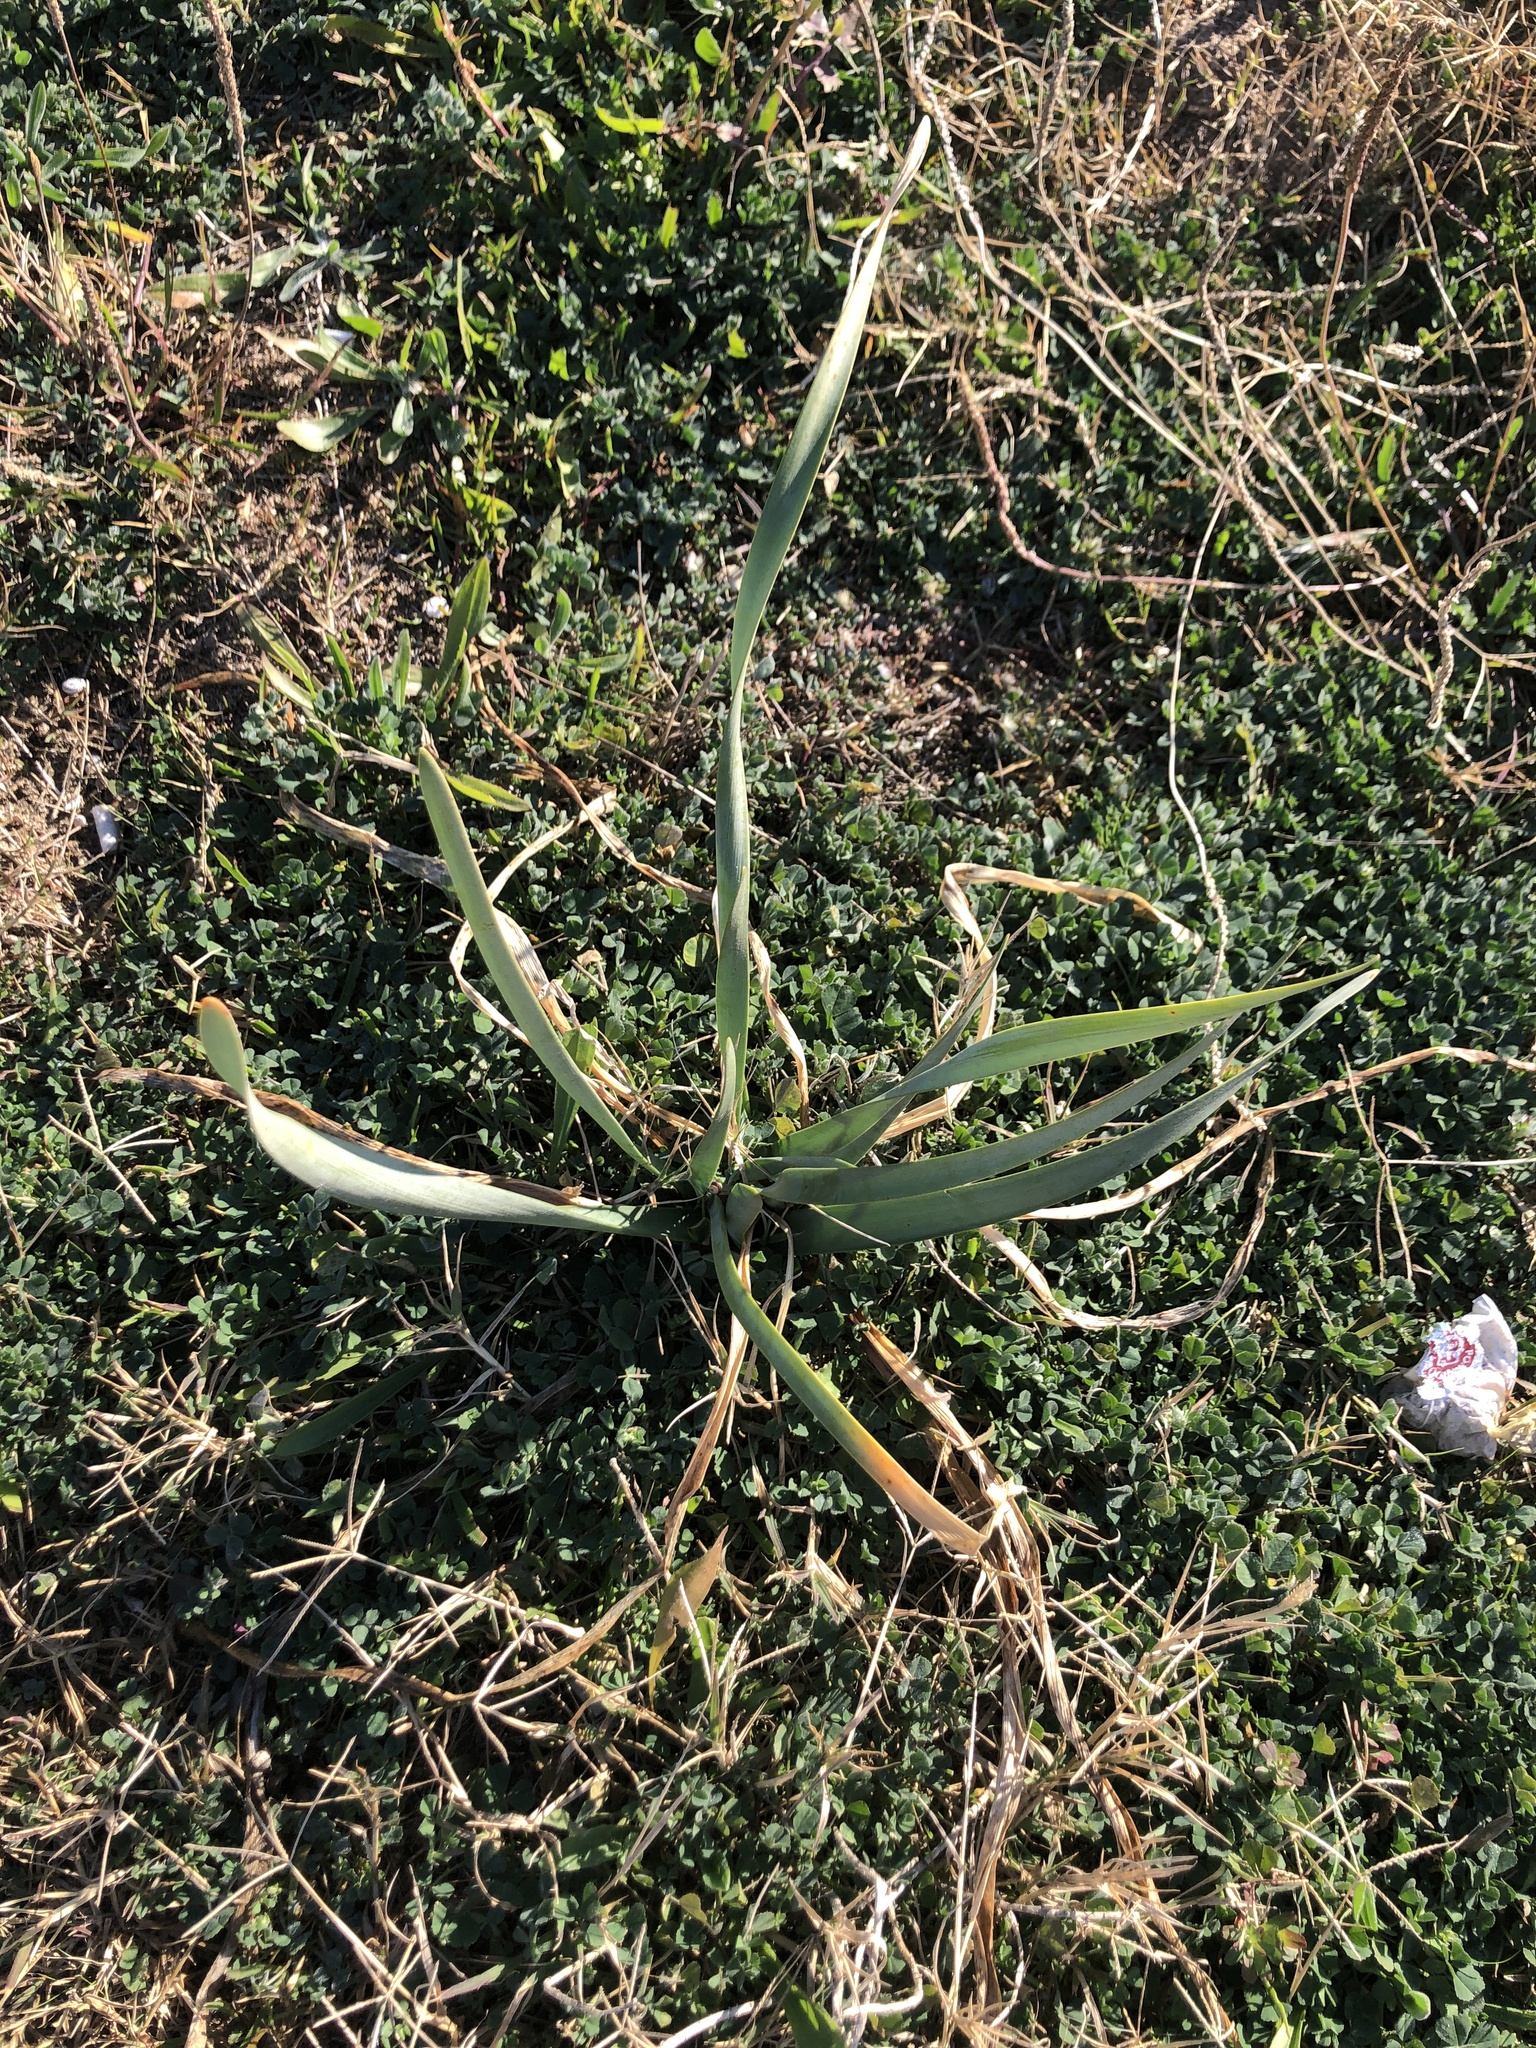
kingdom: Plantae
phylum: Tracheophyta
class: Liliopsida
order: Asparagales
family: Amaryllidaceae
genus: Pancratium
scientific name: Pancratium maritimum
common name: Sea-daffodil
